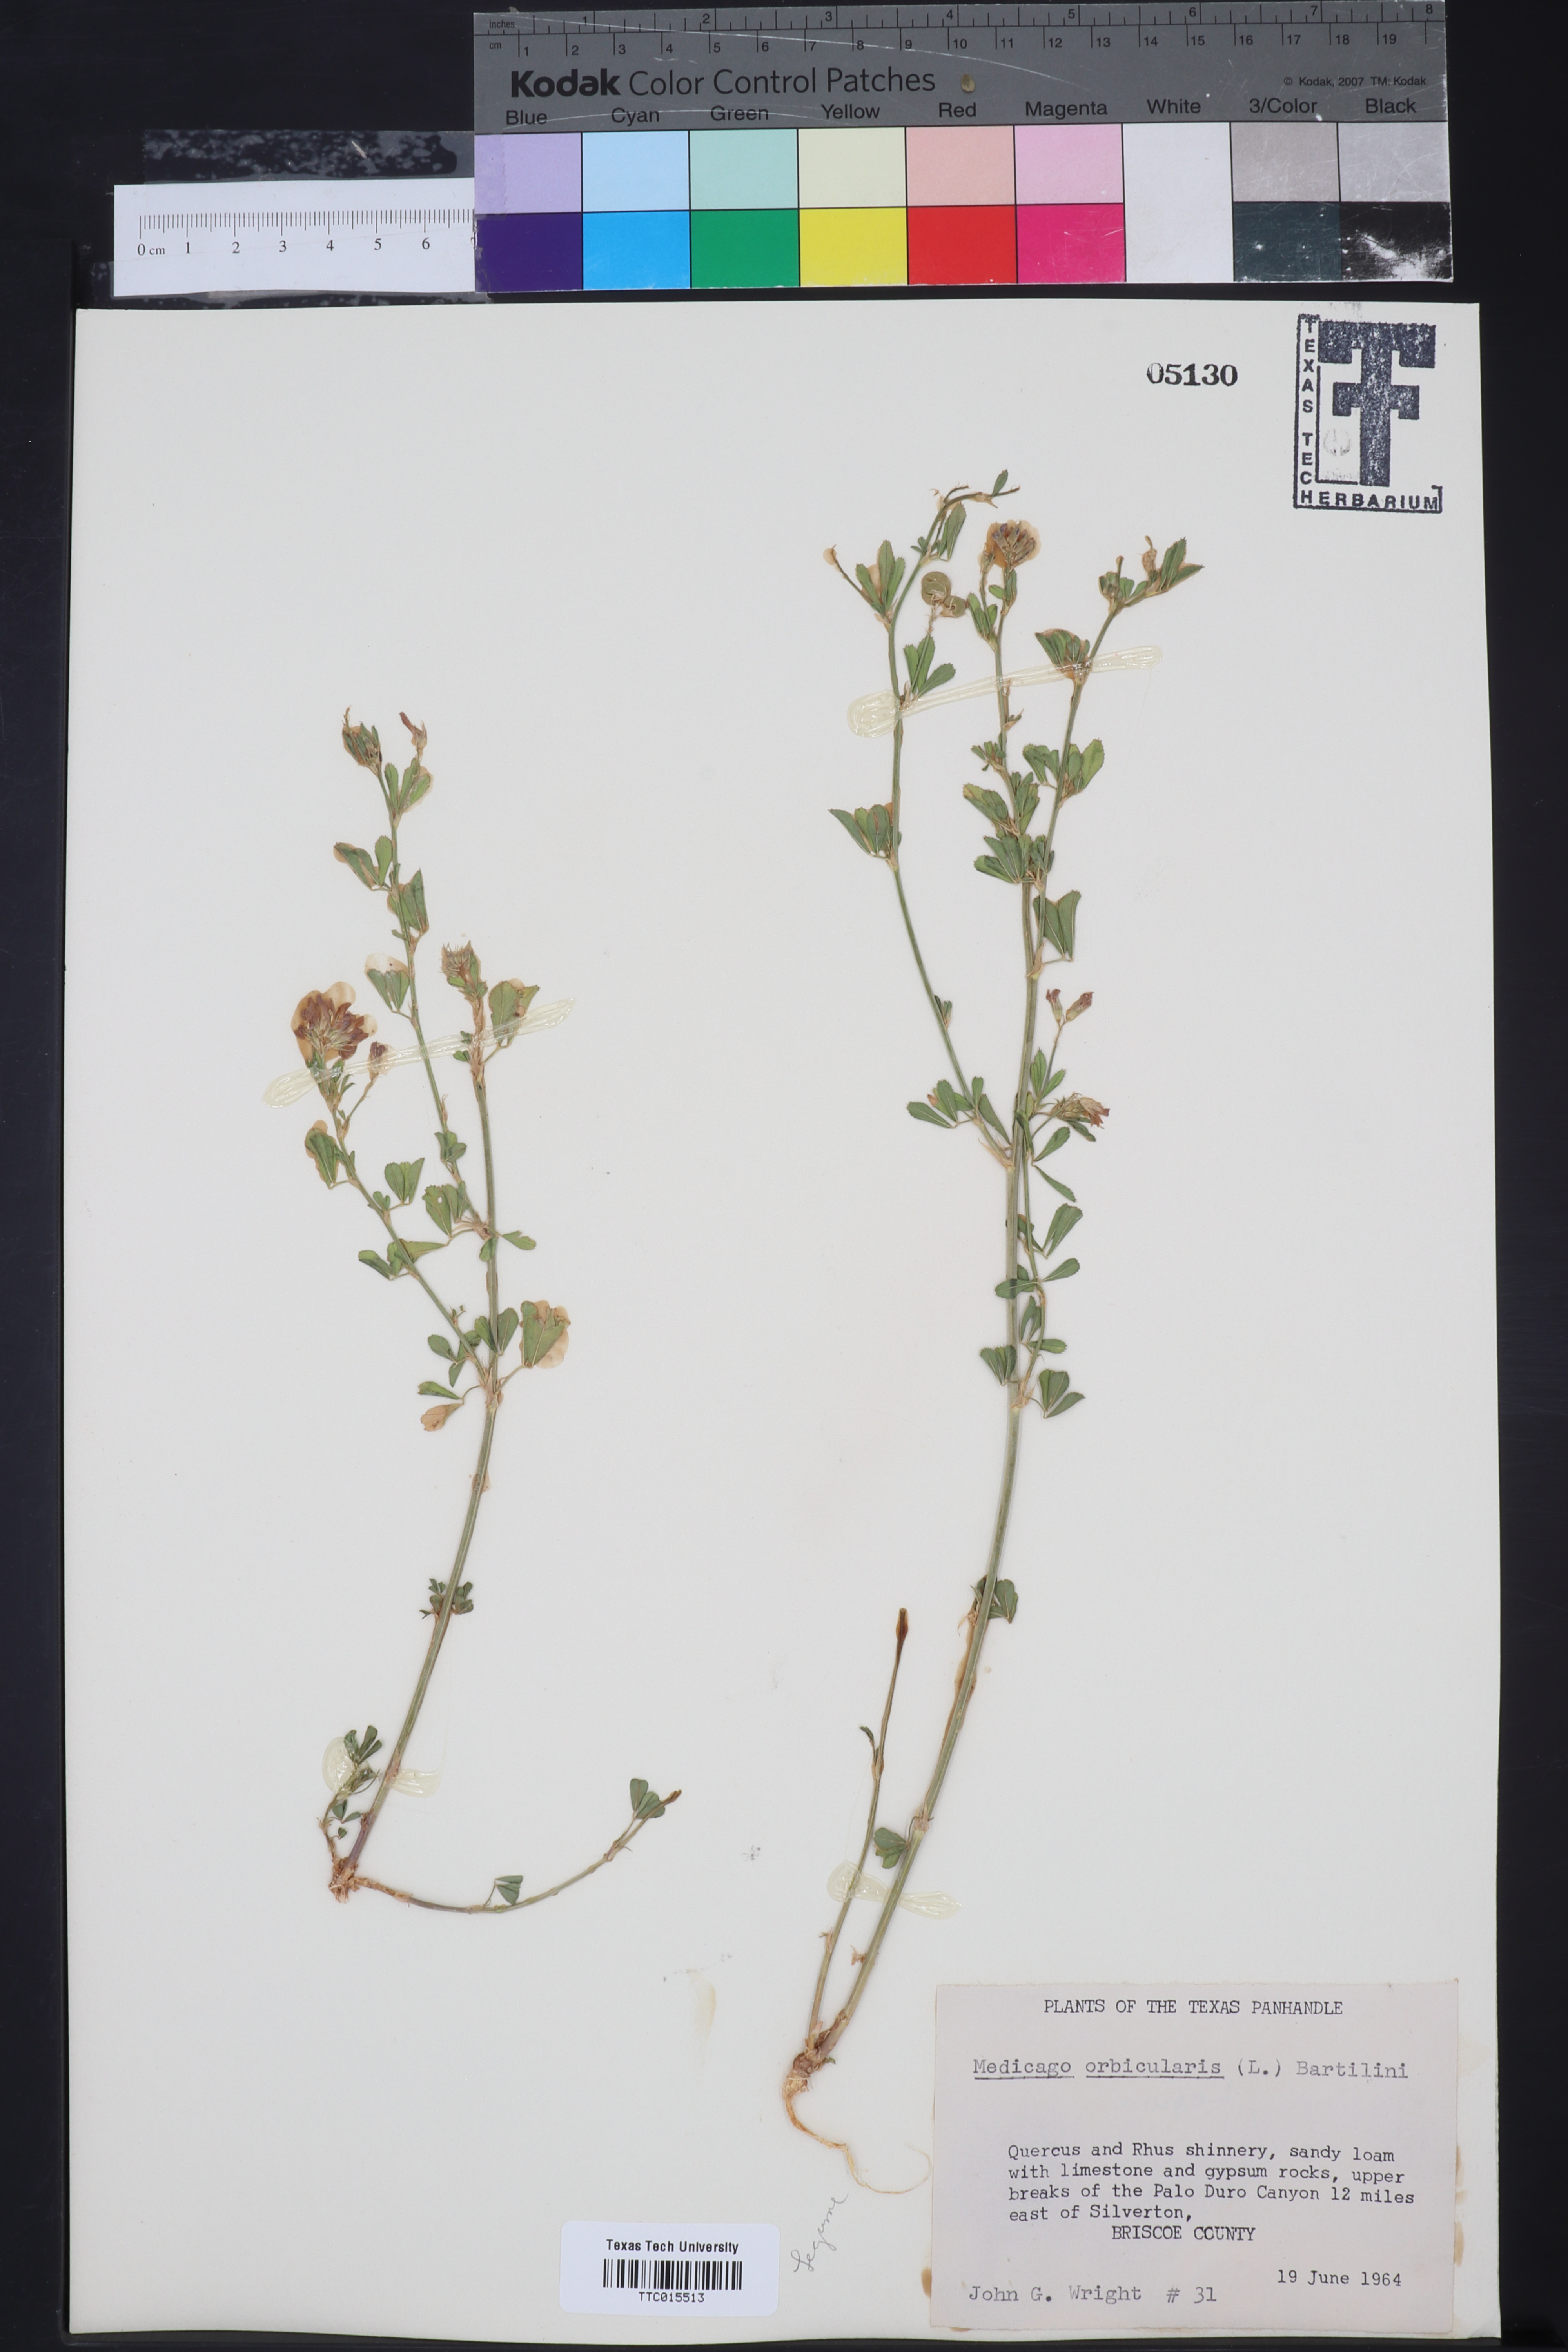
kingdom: Plantae
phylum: Tracheophyta
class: Magnoliopsida
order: Fabales
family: Fabaceae
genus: Medicago
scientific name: Medicago orbicularis
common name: Button medick
